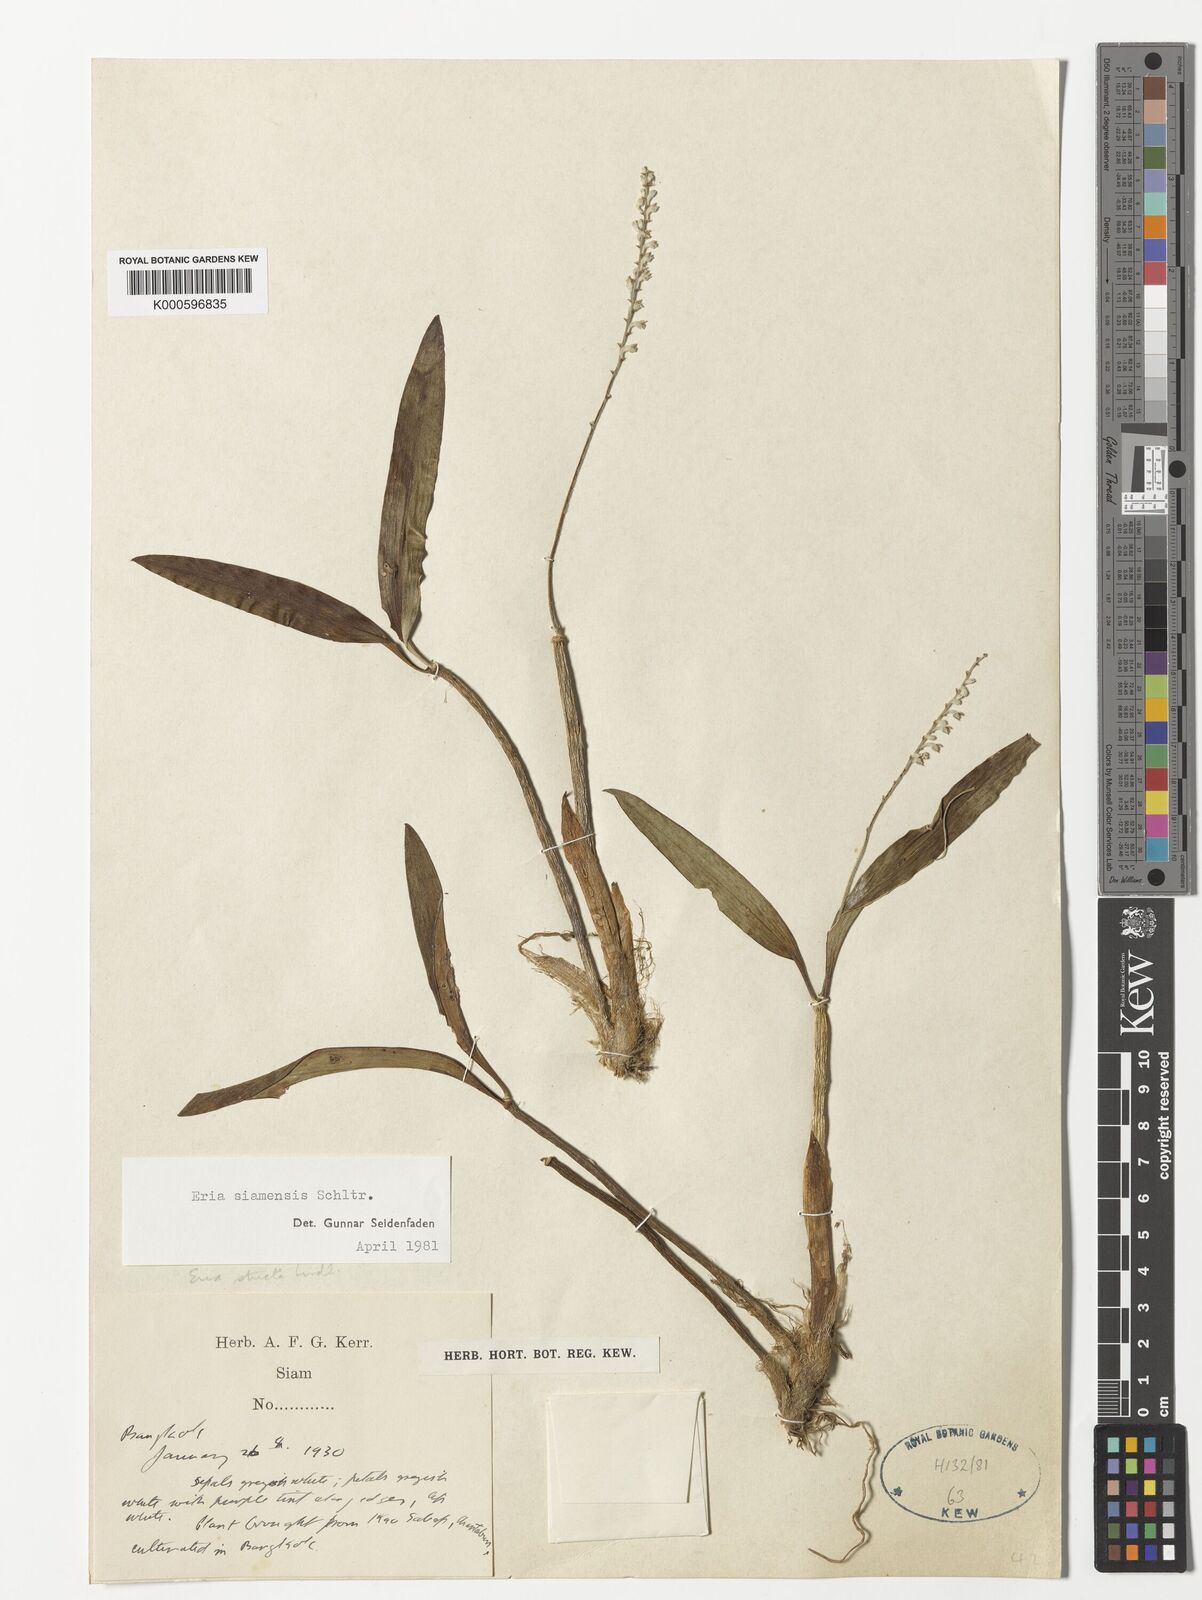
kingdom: Plantae
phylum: Tracheophyta
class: Liliopsida
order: Asparagales
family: Orchidaceae
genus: Cryptochilus
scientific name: Cryptochilus siamensis
